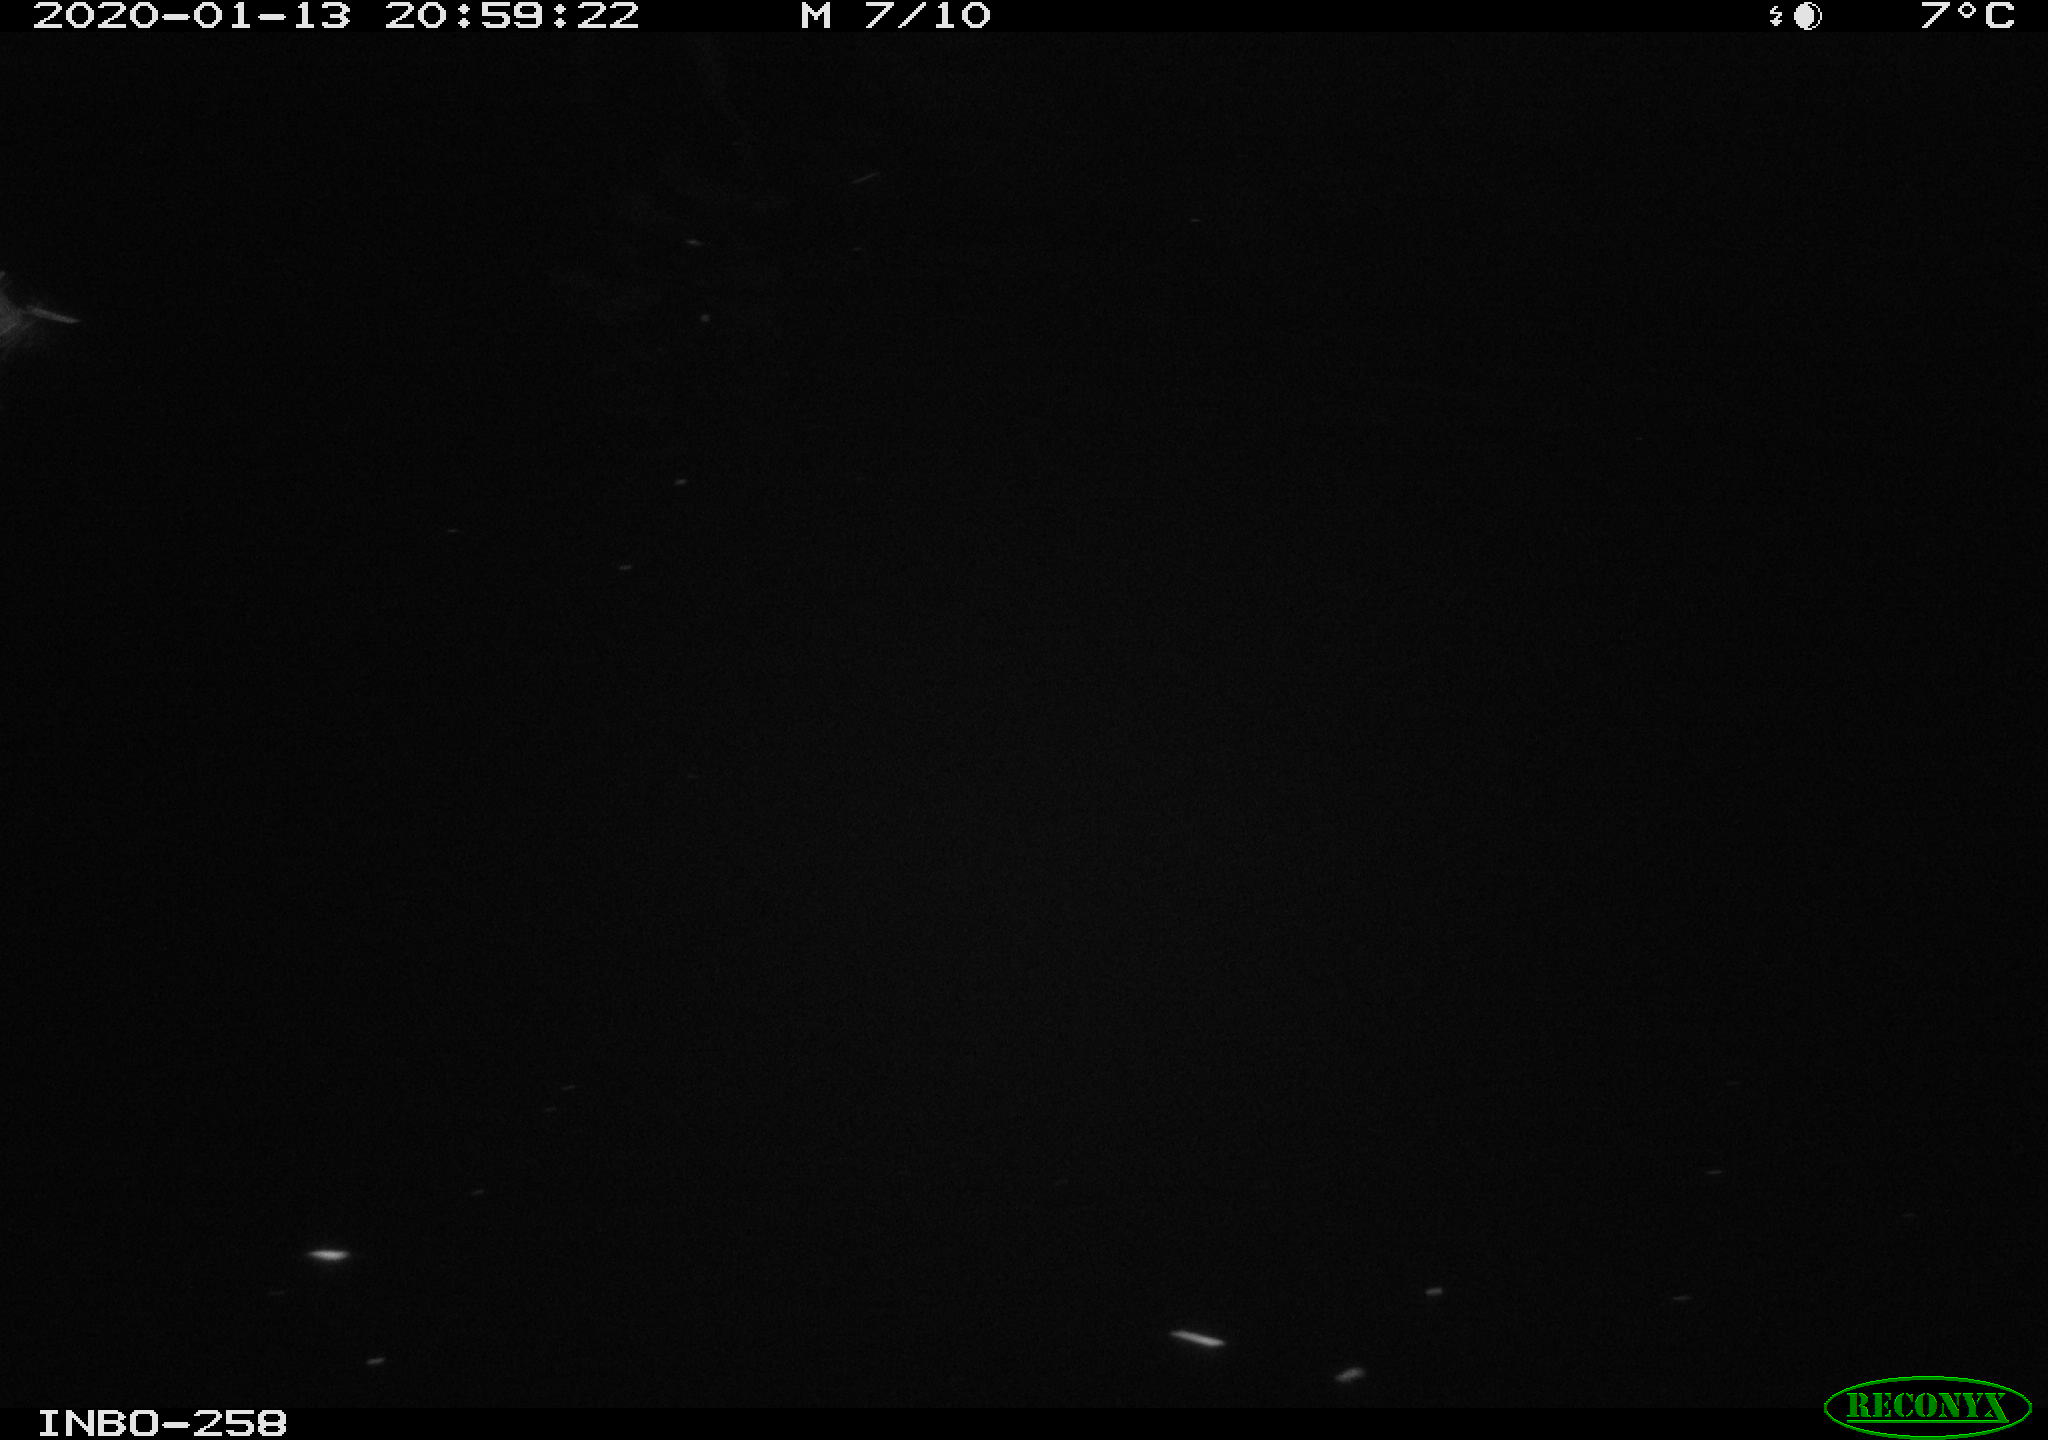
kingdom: Animalia
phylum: Chordata
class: Aves
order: Anseriformes
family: Anatidae
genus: Anas
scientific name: Anas platyrhynchos
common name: Mallard
